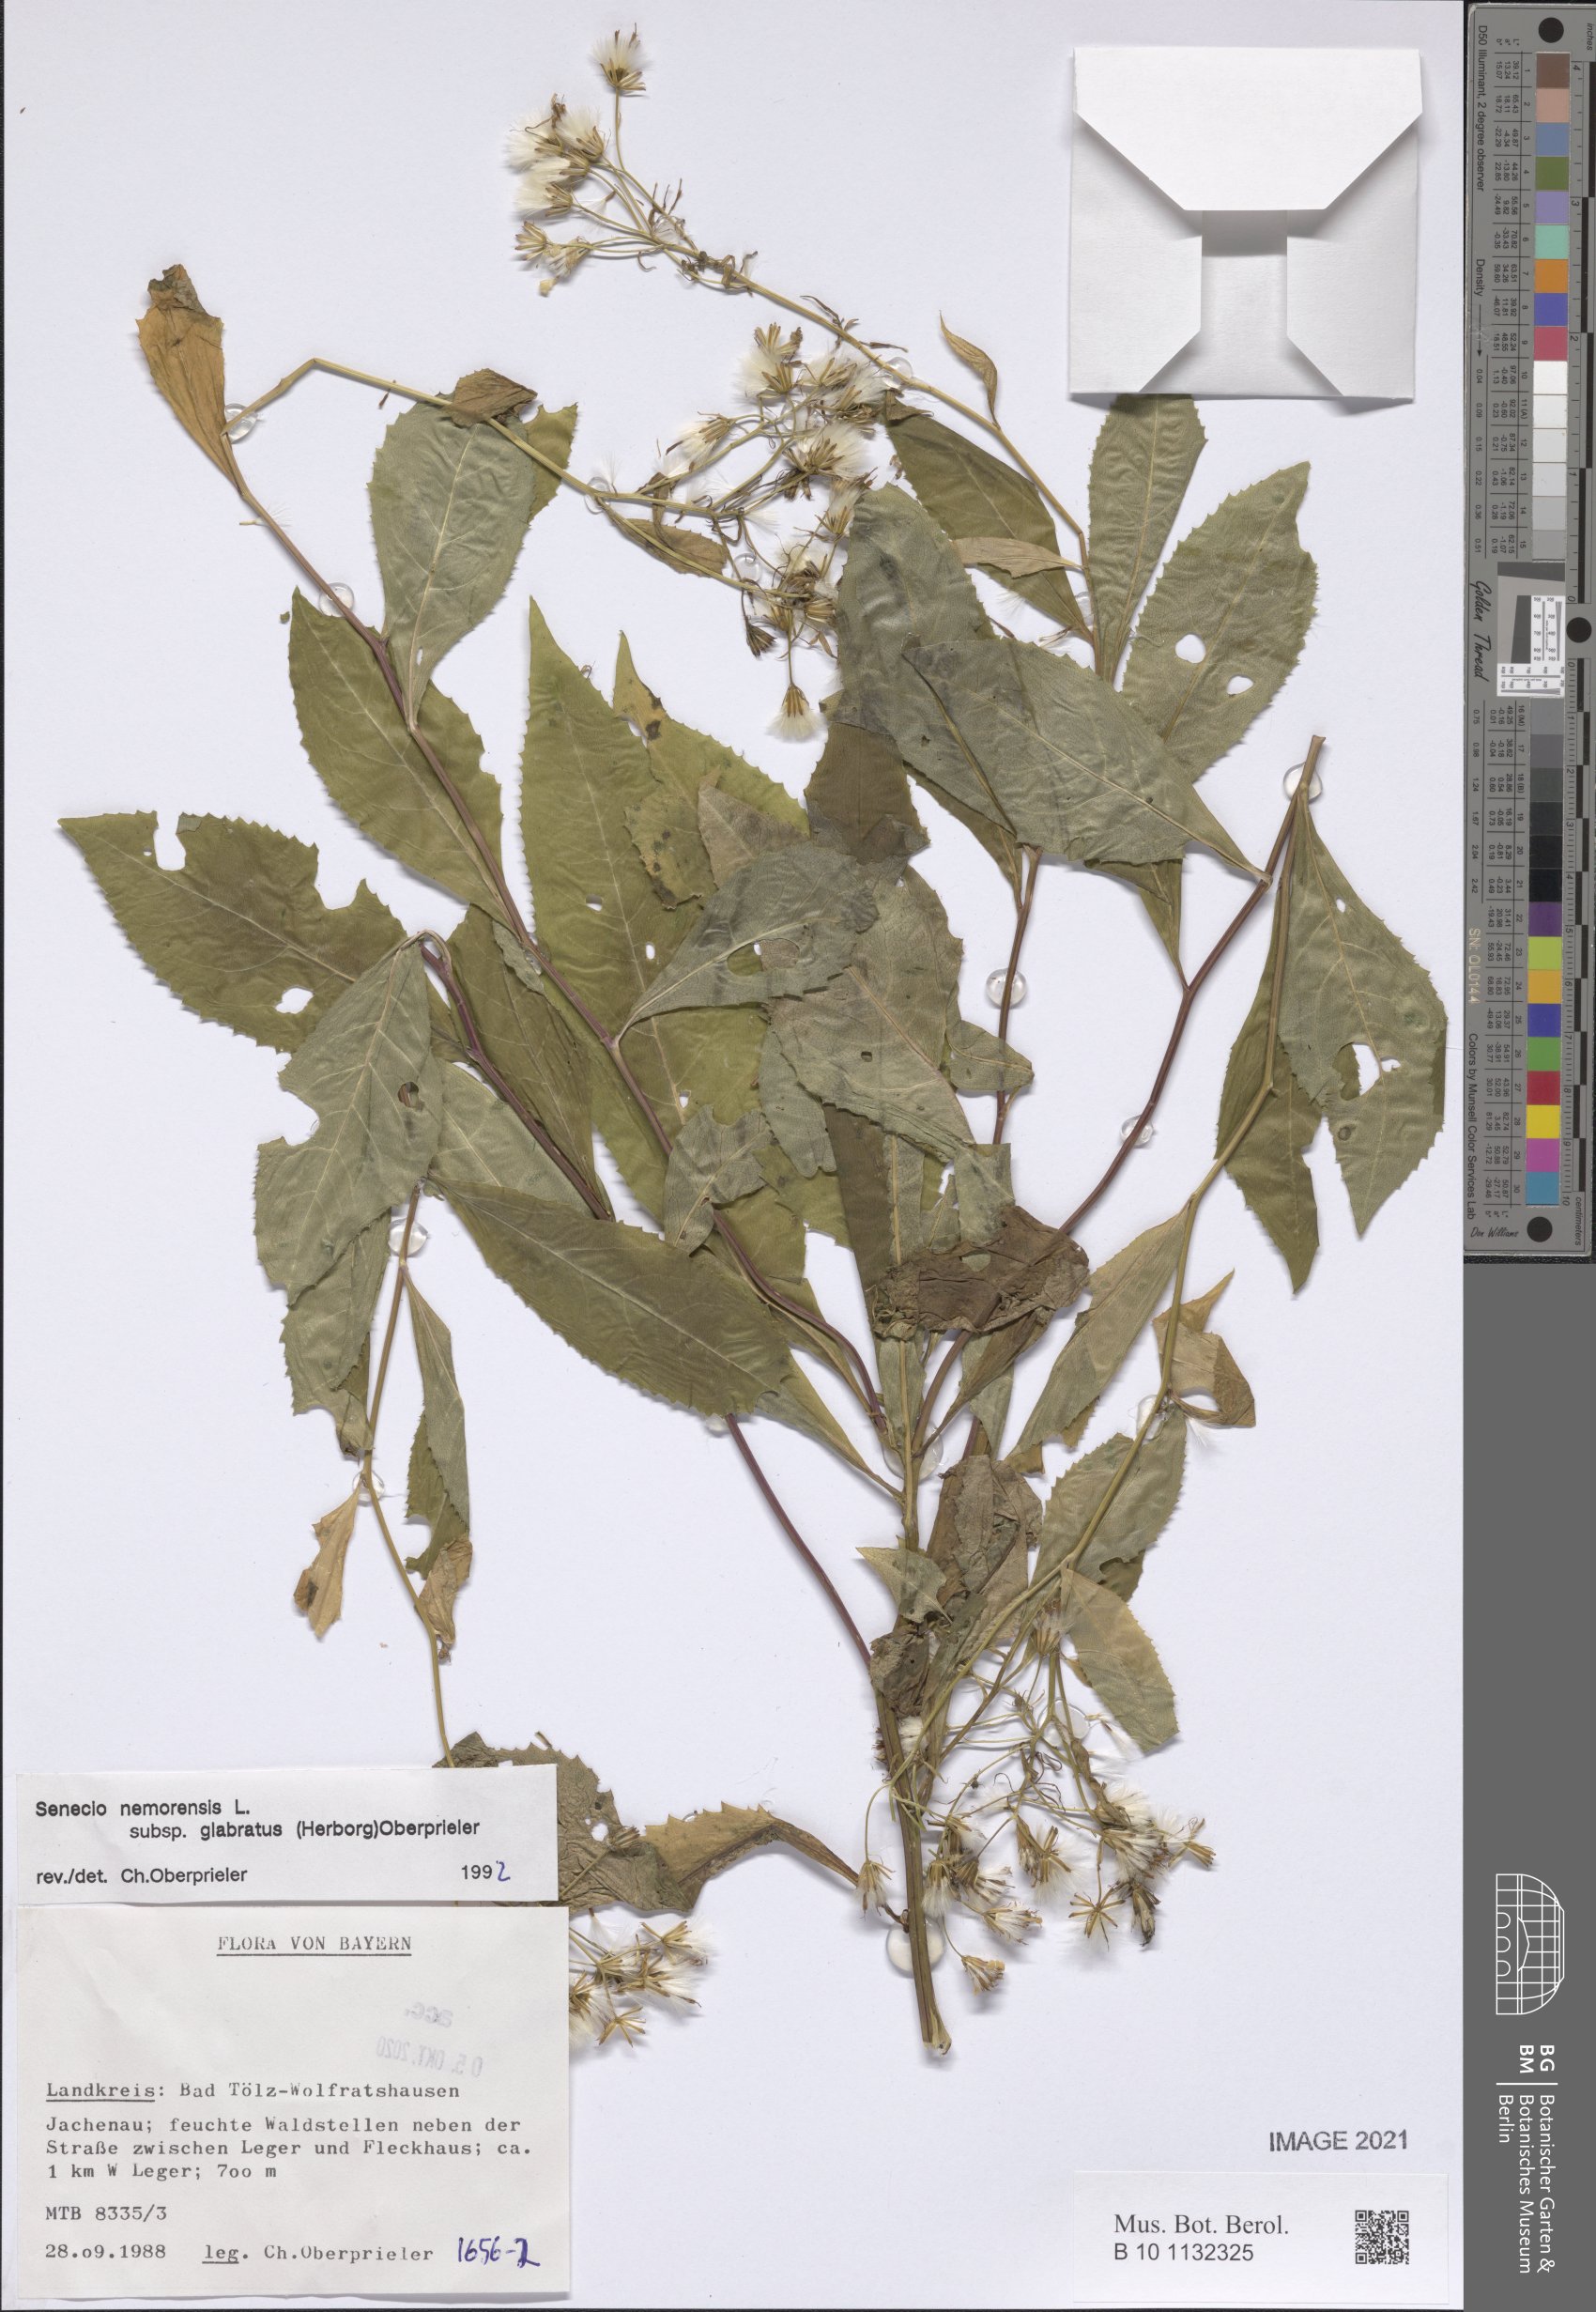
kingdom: Plantae
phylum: Tracheophyta
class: Magnoliopsida
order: Asterales
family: Asteraceae
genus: Senecio
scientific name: Senecio germanicus
